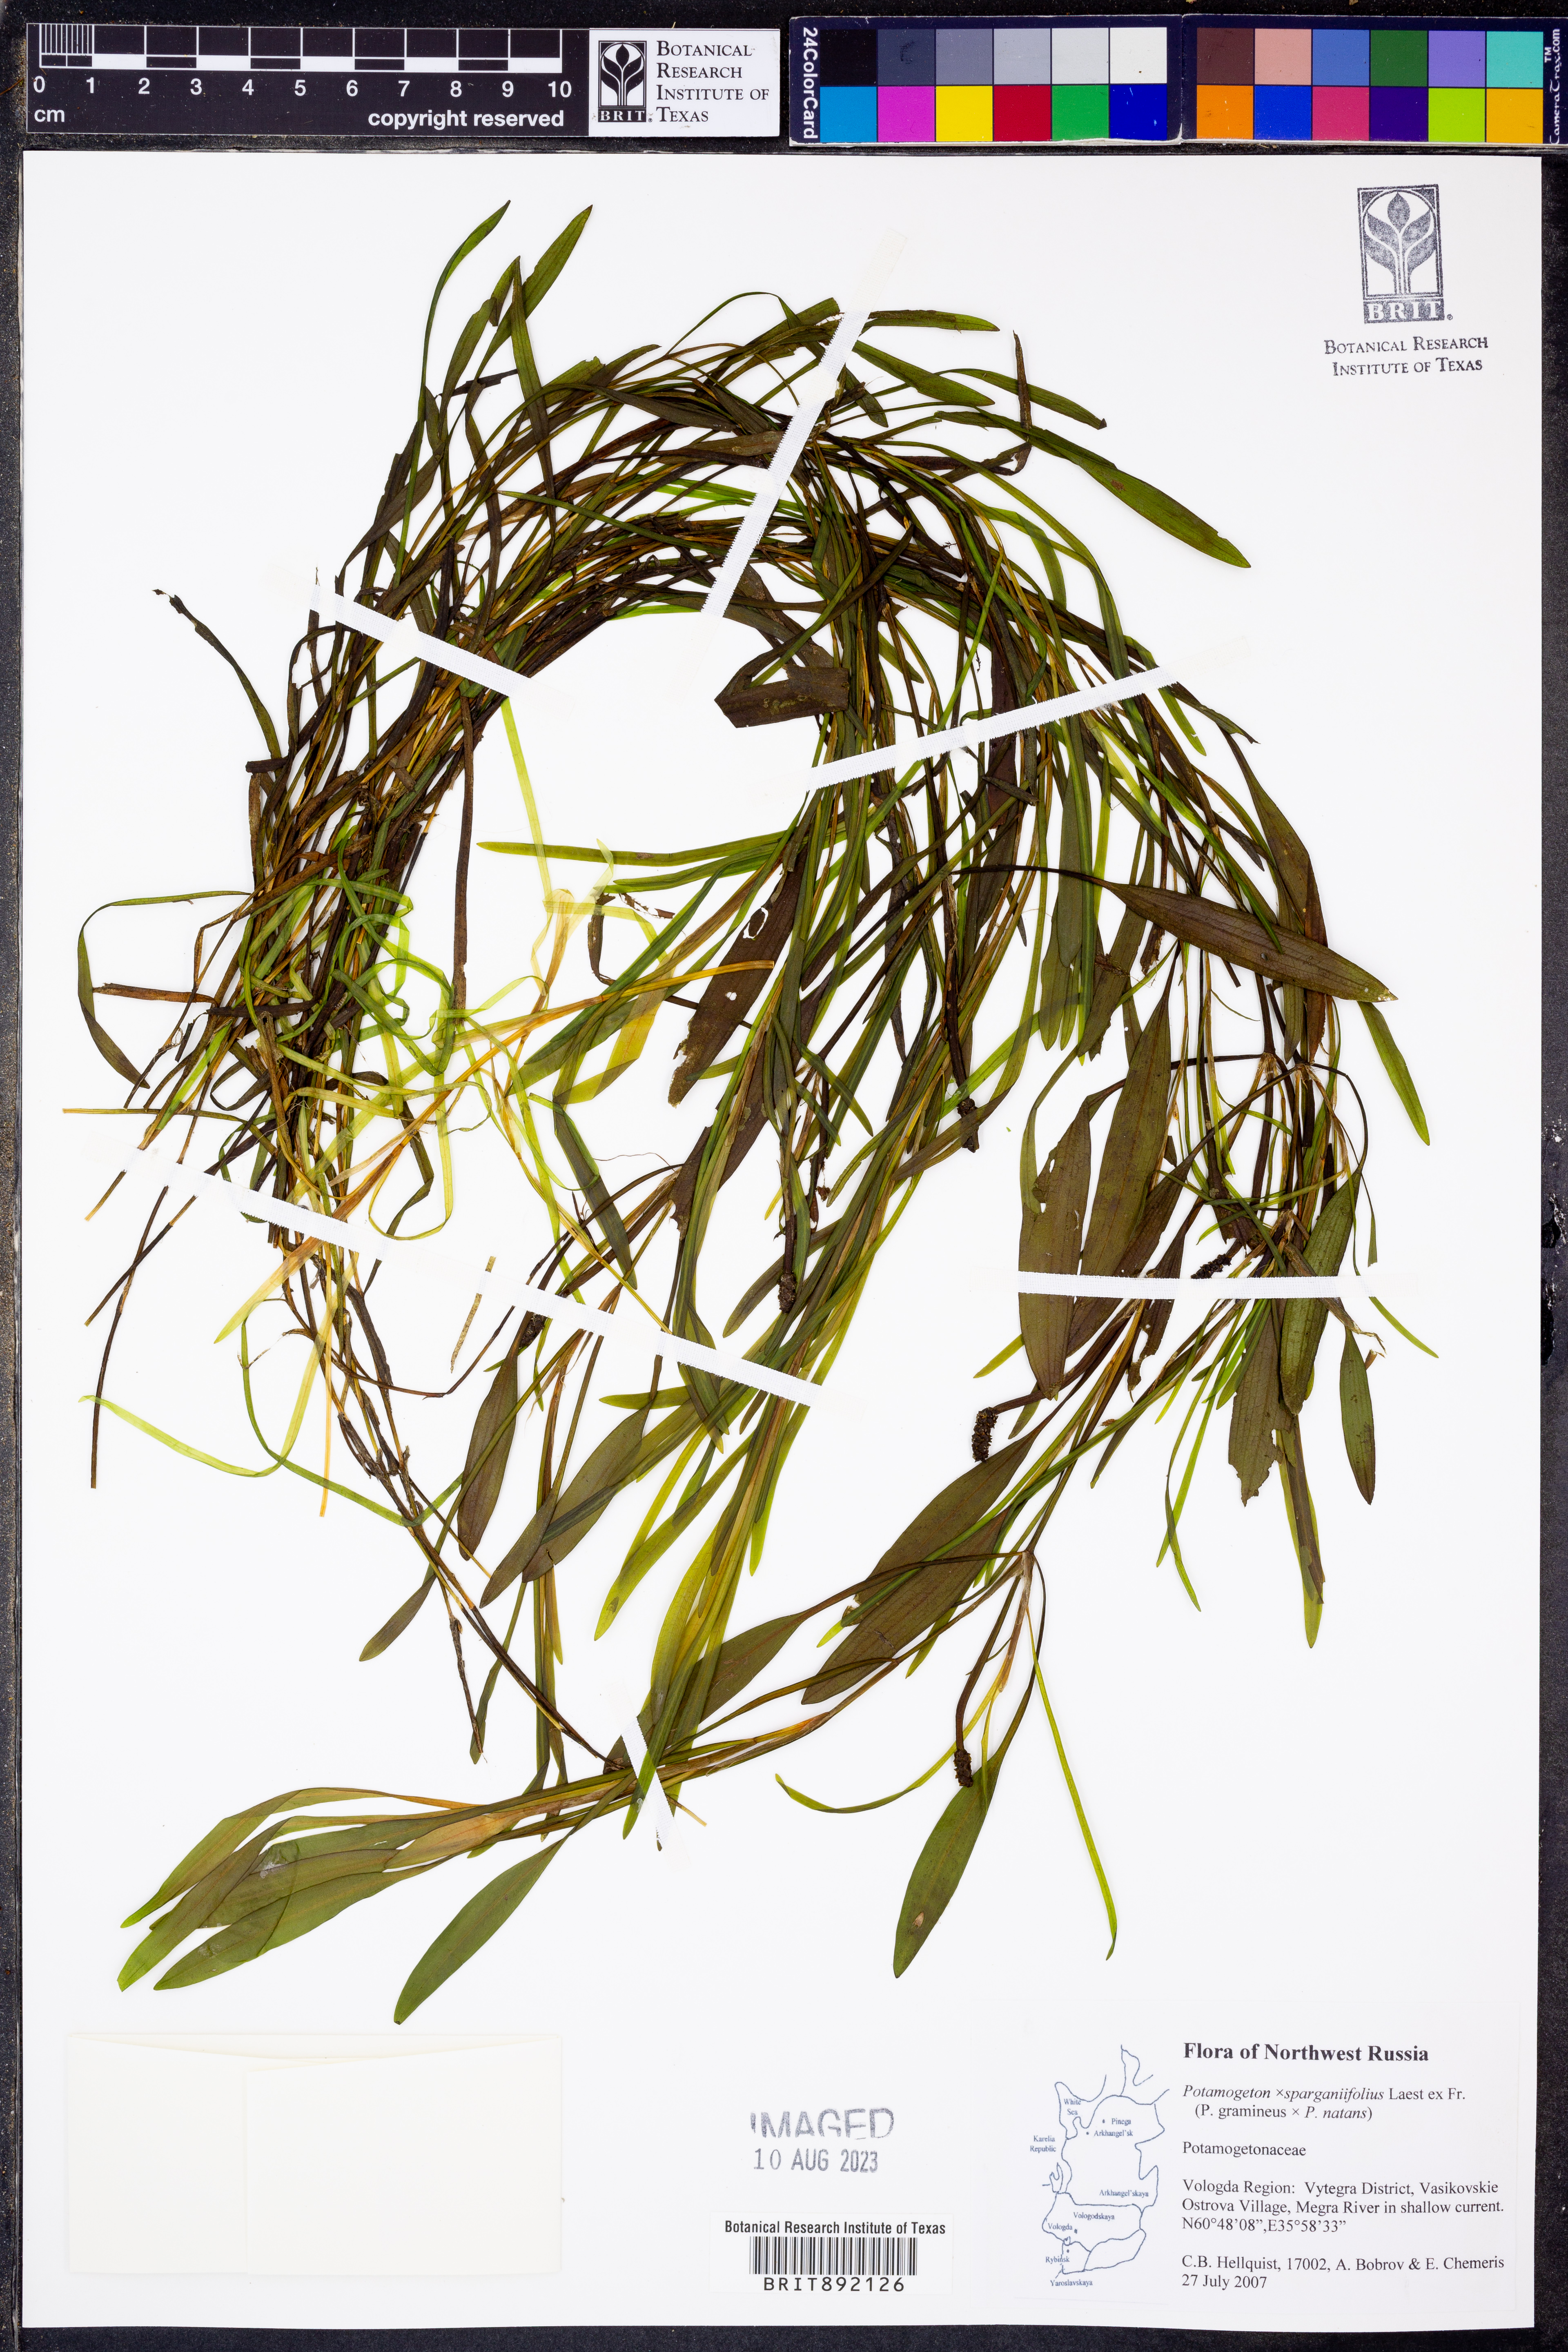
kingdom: Plantae
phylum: Tracheophyta
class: Liliopsida
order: Alismatales
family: Potamogetonaceae
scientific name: Potamogetonaceae
